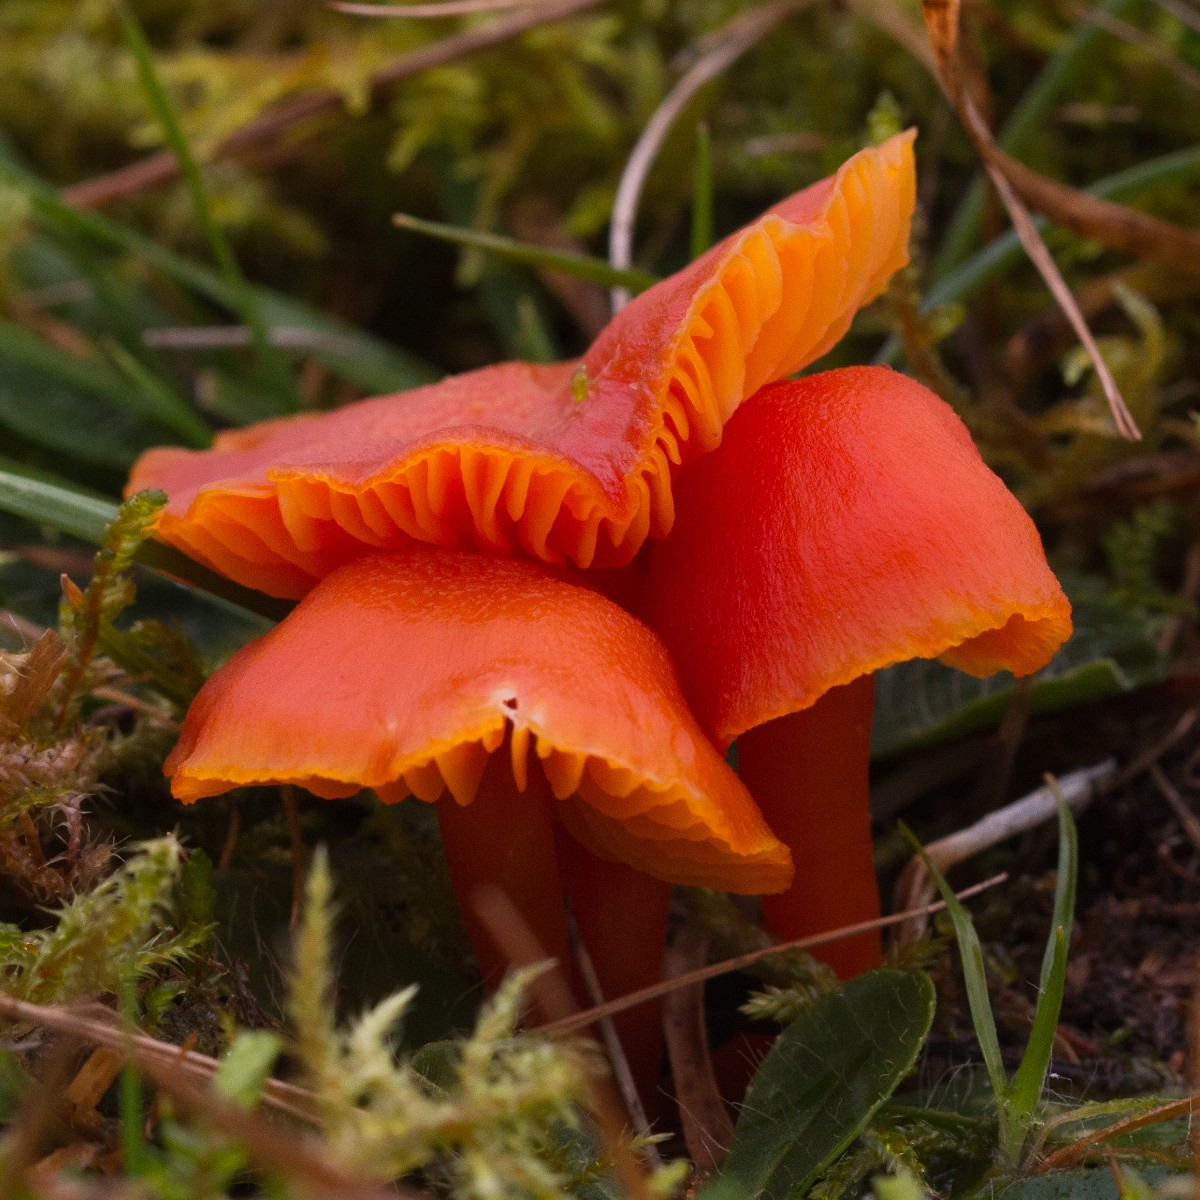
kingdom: Fungi
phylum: Basidiomycota
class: Agaricomycetes
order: Agaricales
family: Hygrophoraceae
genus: Hygrocybe
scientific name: Hygrocybe miniata
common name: mønje-vokshat
